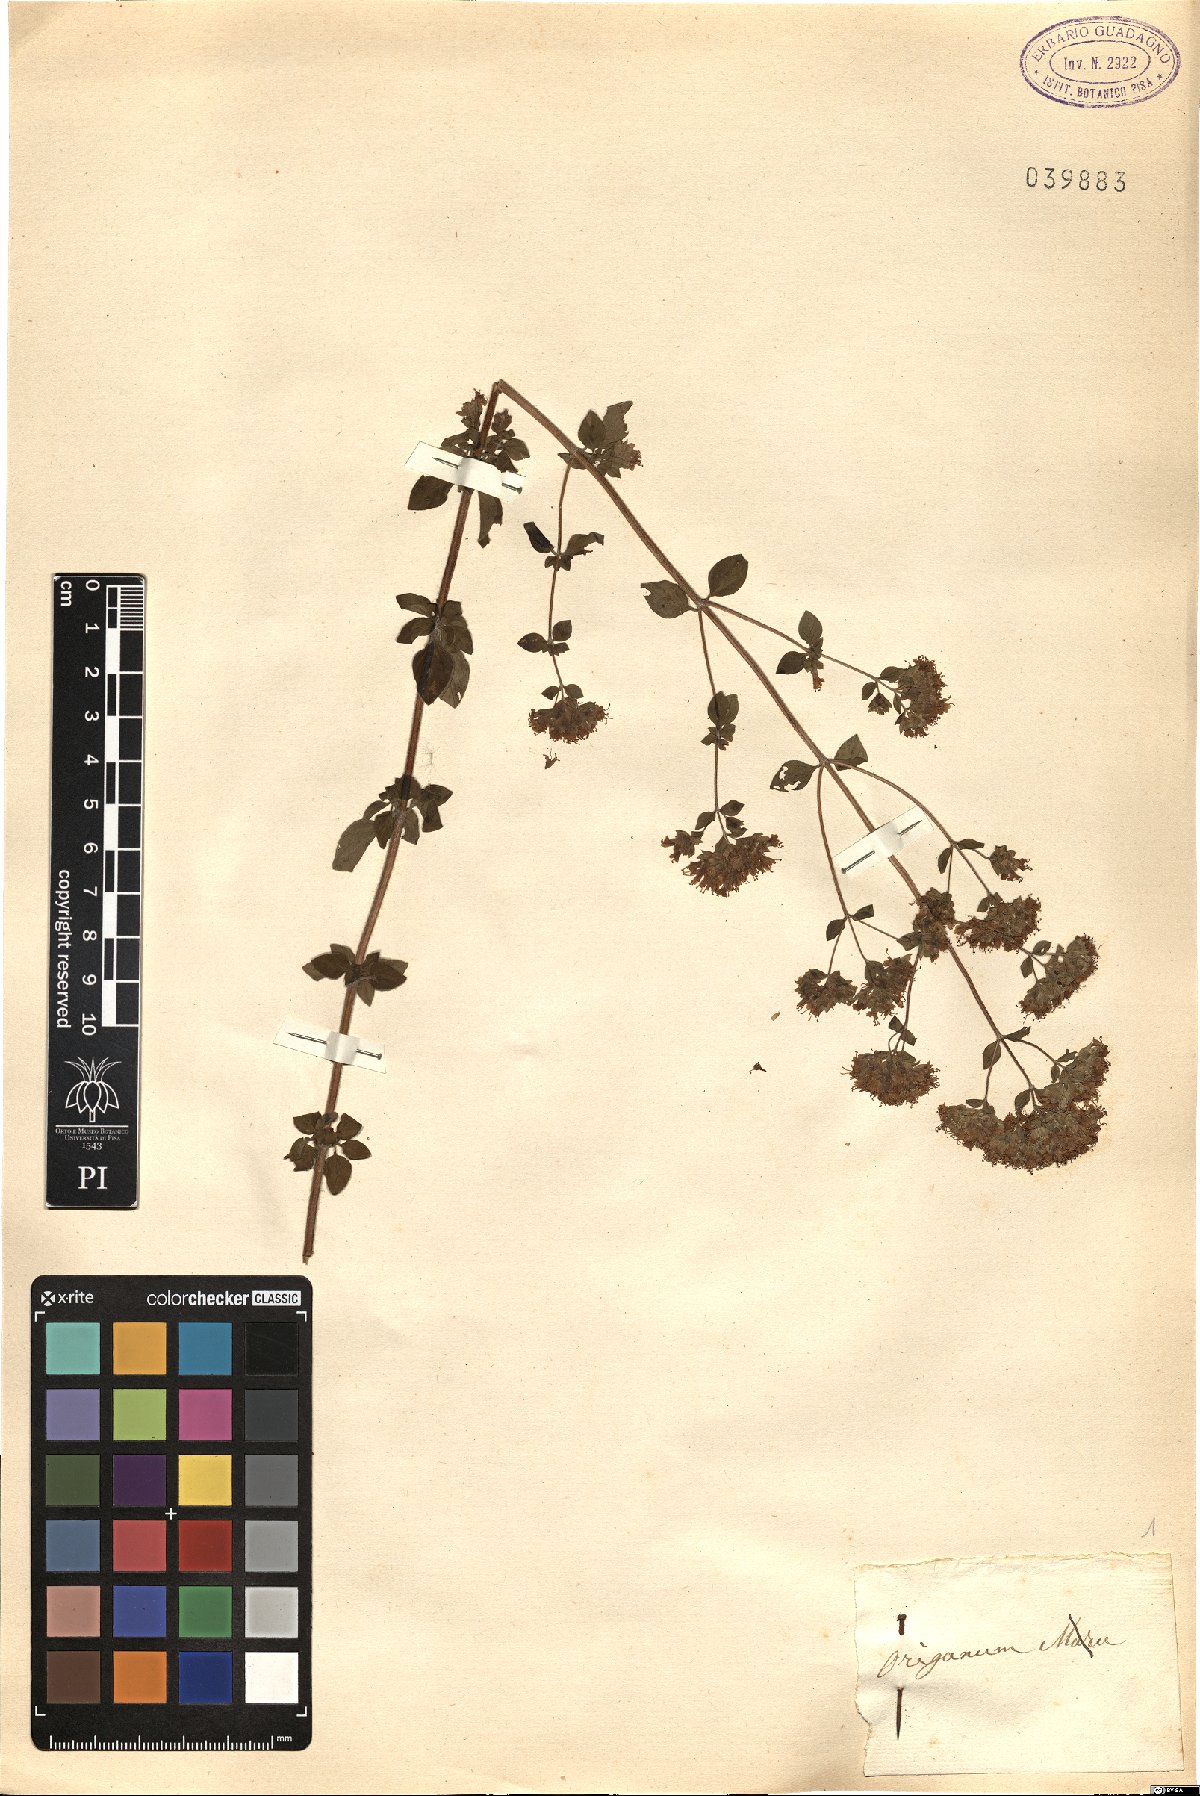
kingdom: Plantae
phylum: Tracheophyta
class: Magnoliopsida
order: Lamiales
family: Lamiaceae
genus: Origanum
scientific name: Origanum
